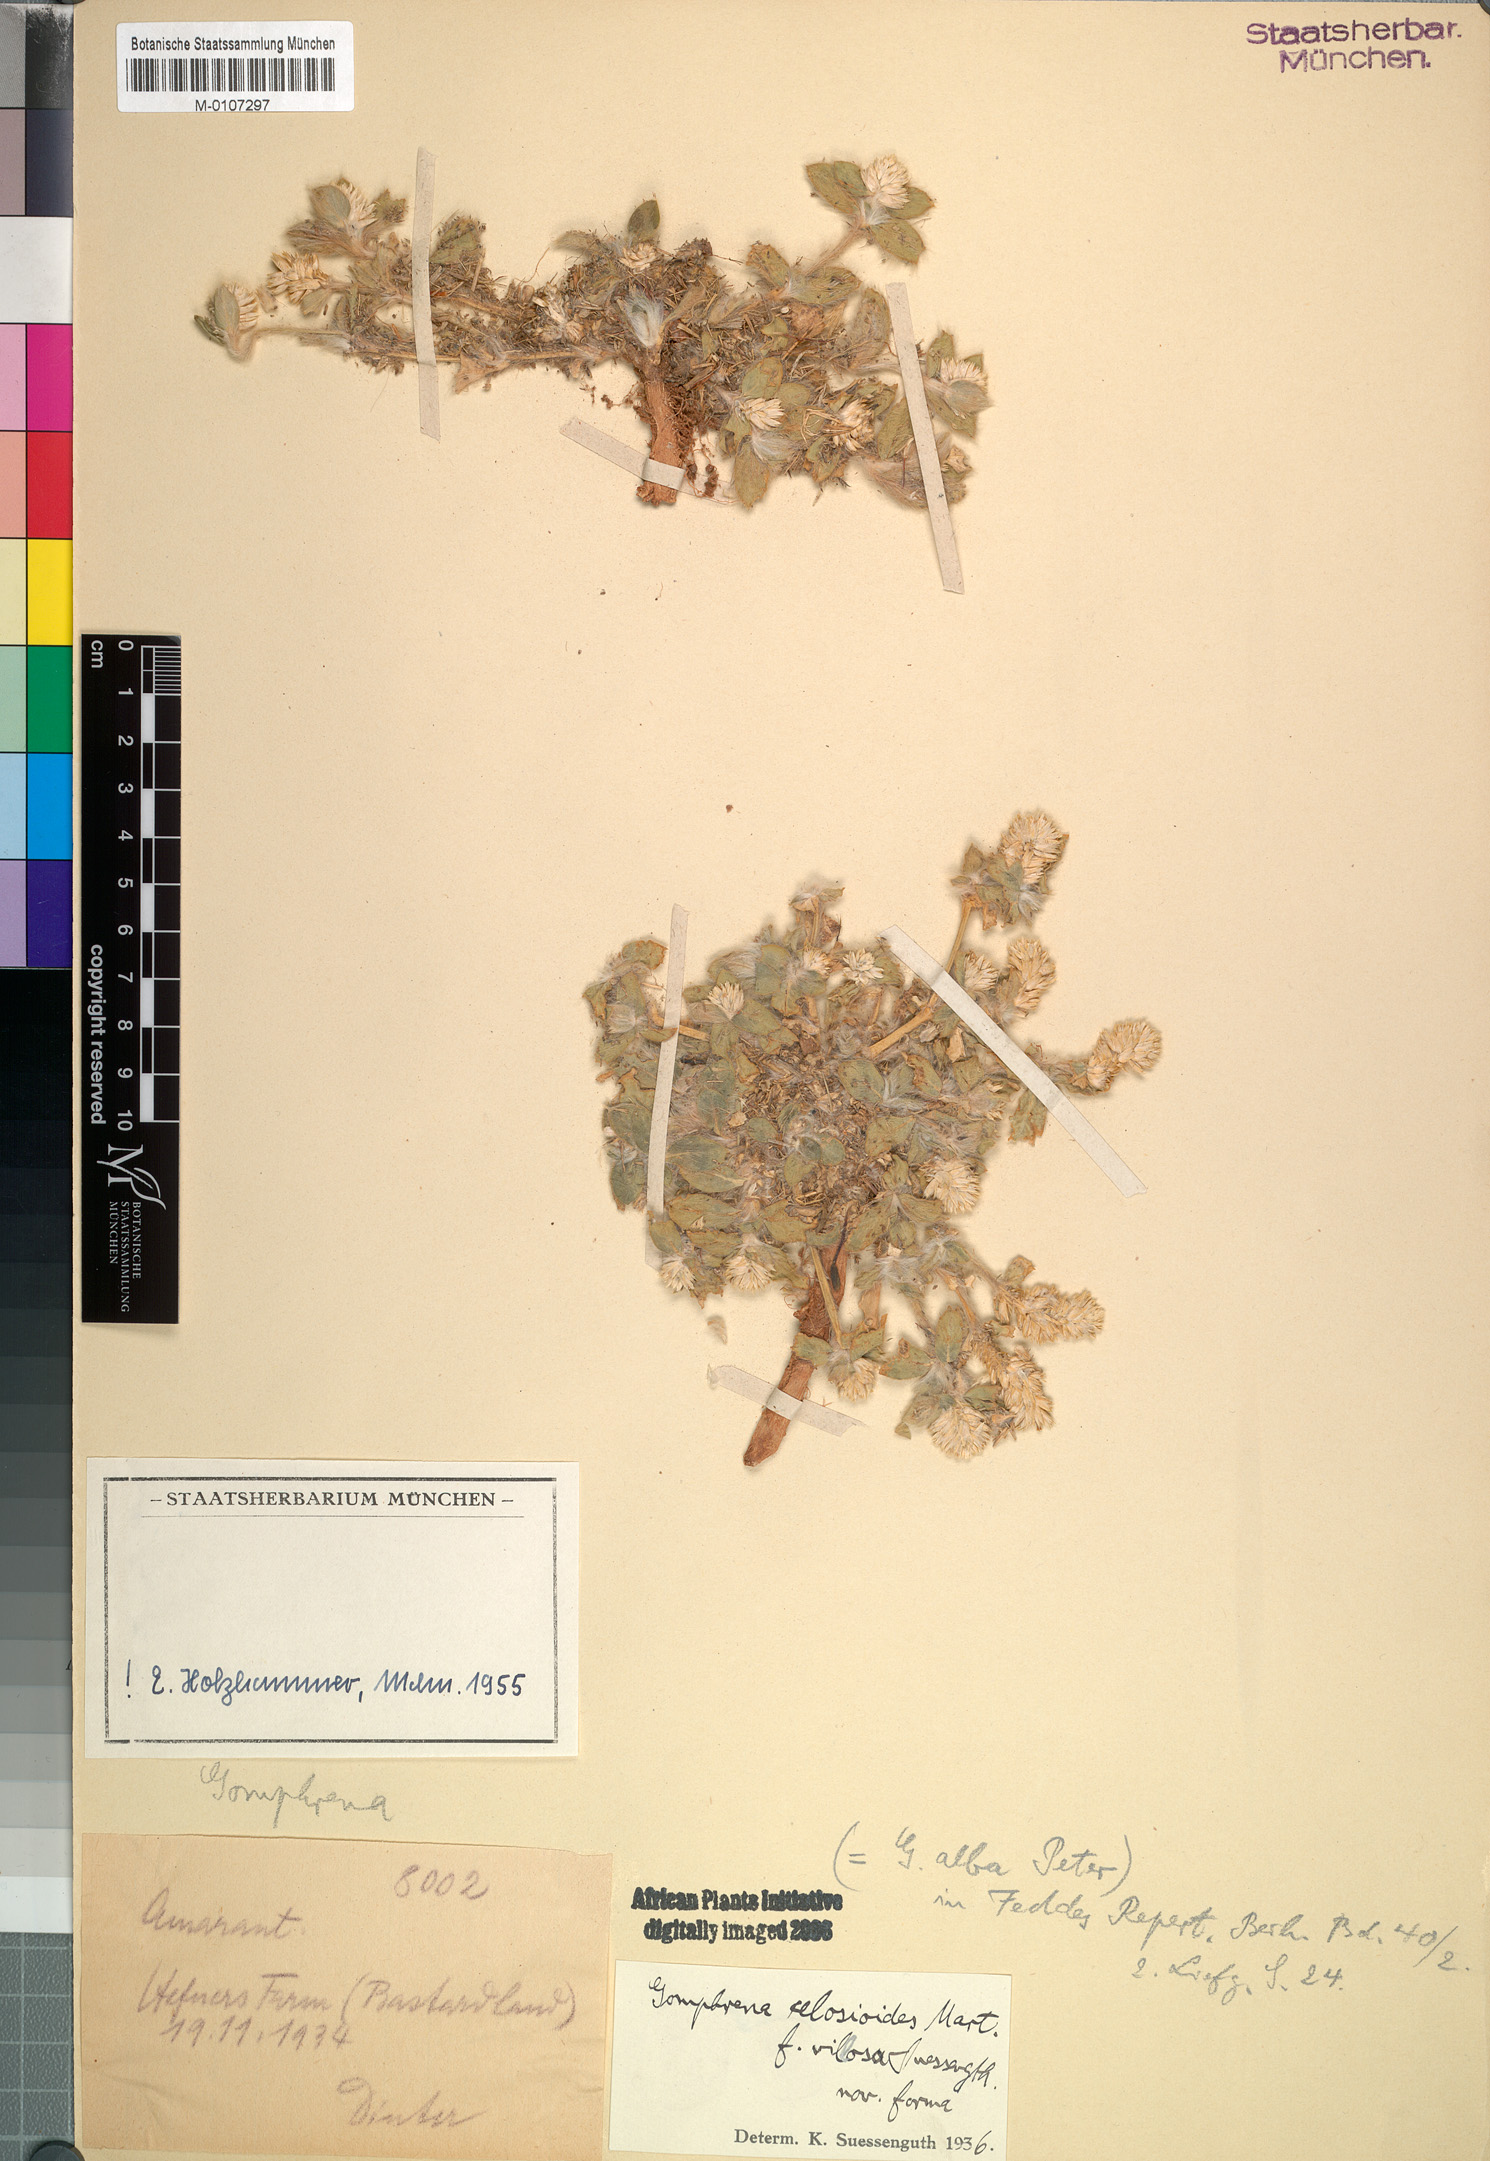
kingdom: Plantae
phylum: Tracheophyta
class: Magnoliopsida
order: Caryophyllales
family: Amaranthaceae
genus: Gomphrena
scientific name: Gomphrena celosioides
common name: Gomphrena-weed
